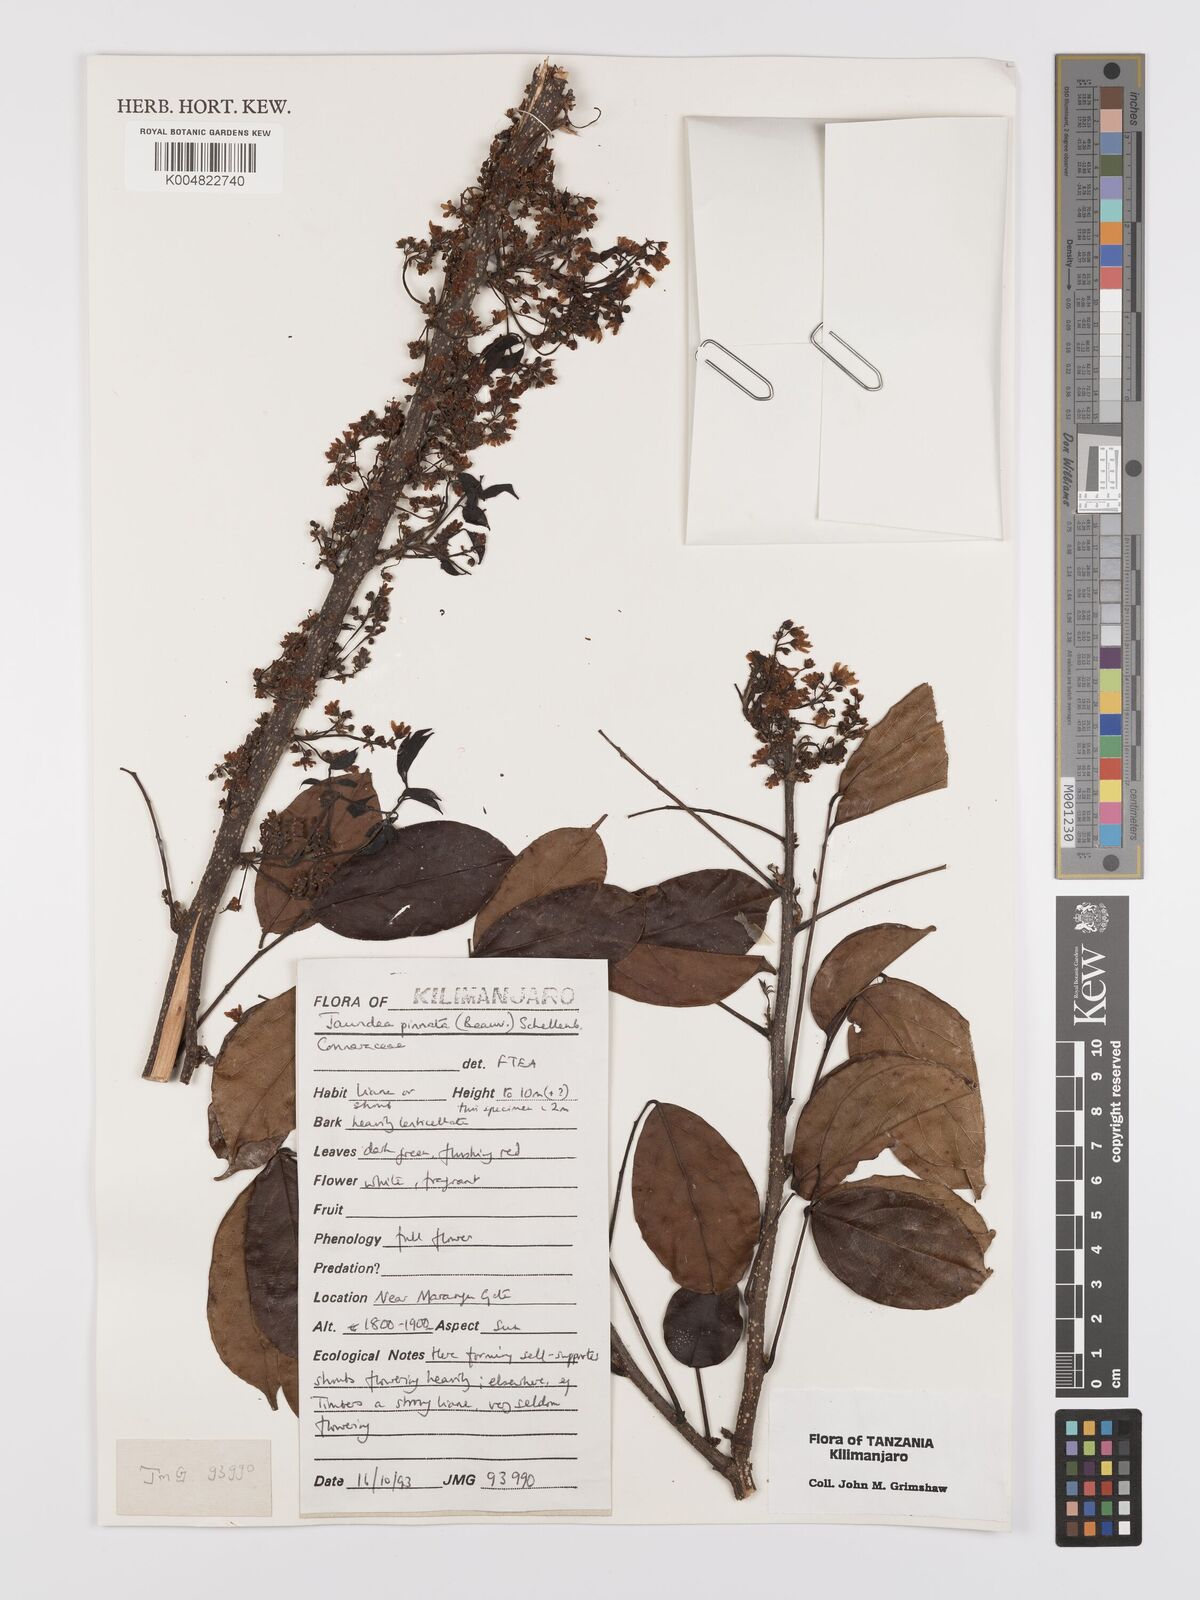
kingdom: Plantae
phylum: Tracheophyta
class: Magnoliopsida
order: Oxalidales
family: Connaraceae
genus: Rourea
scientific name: Rourea pinnata
